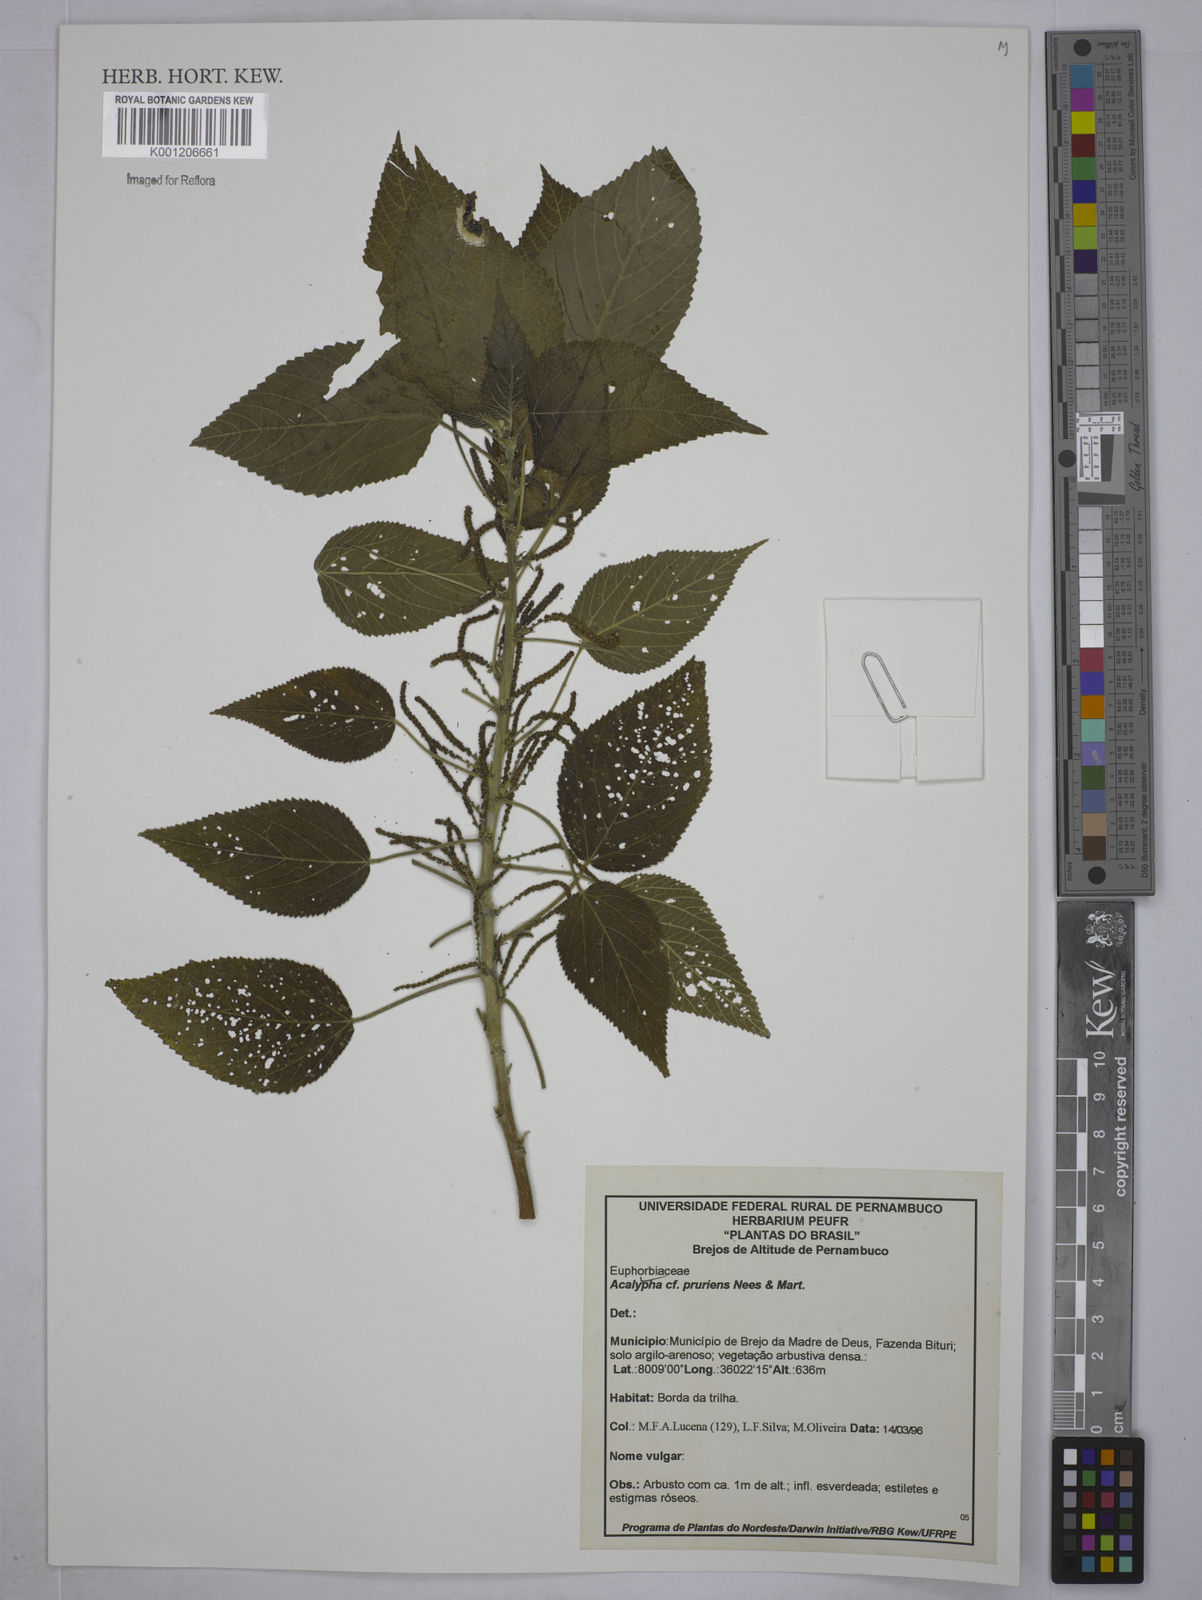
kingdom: Plantae
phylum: Tracheophyta
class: Magnoliopsida
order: Malpighiales
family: Euphorbiaceae
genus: Acalypha
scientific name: Acalypha pruriens
